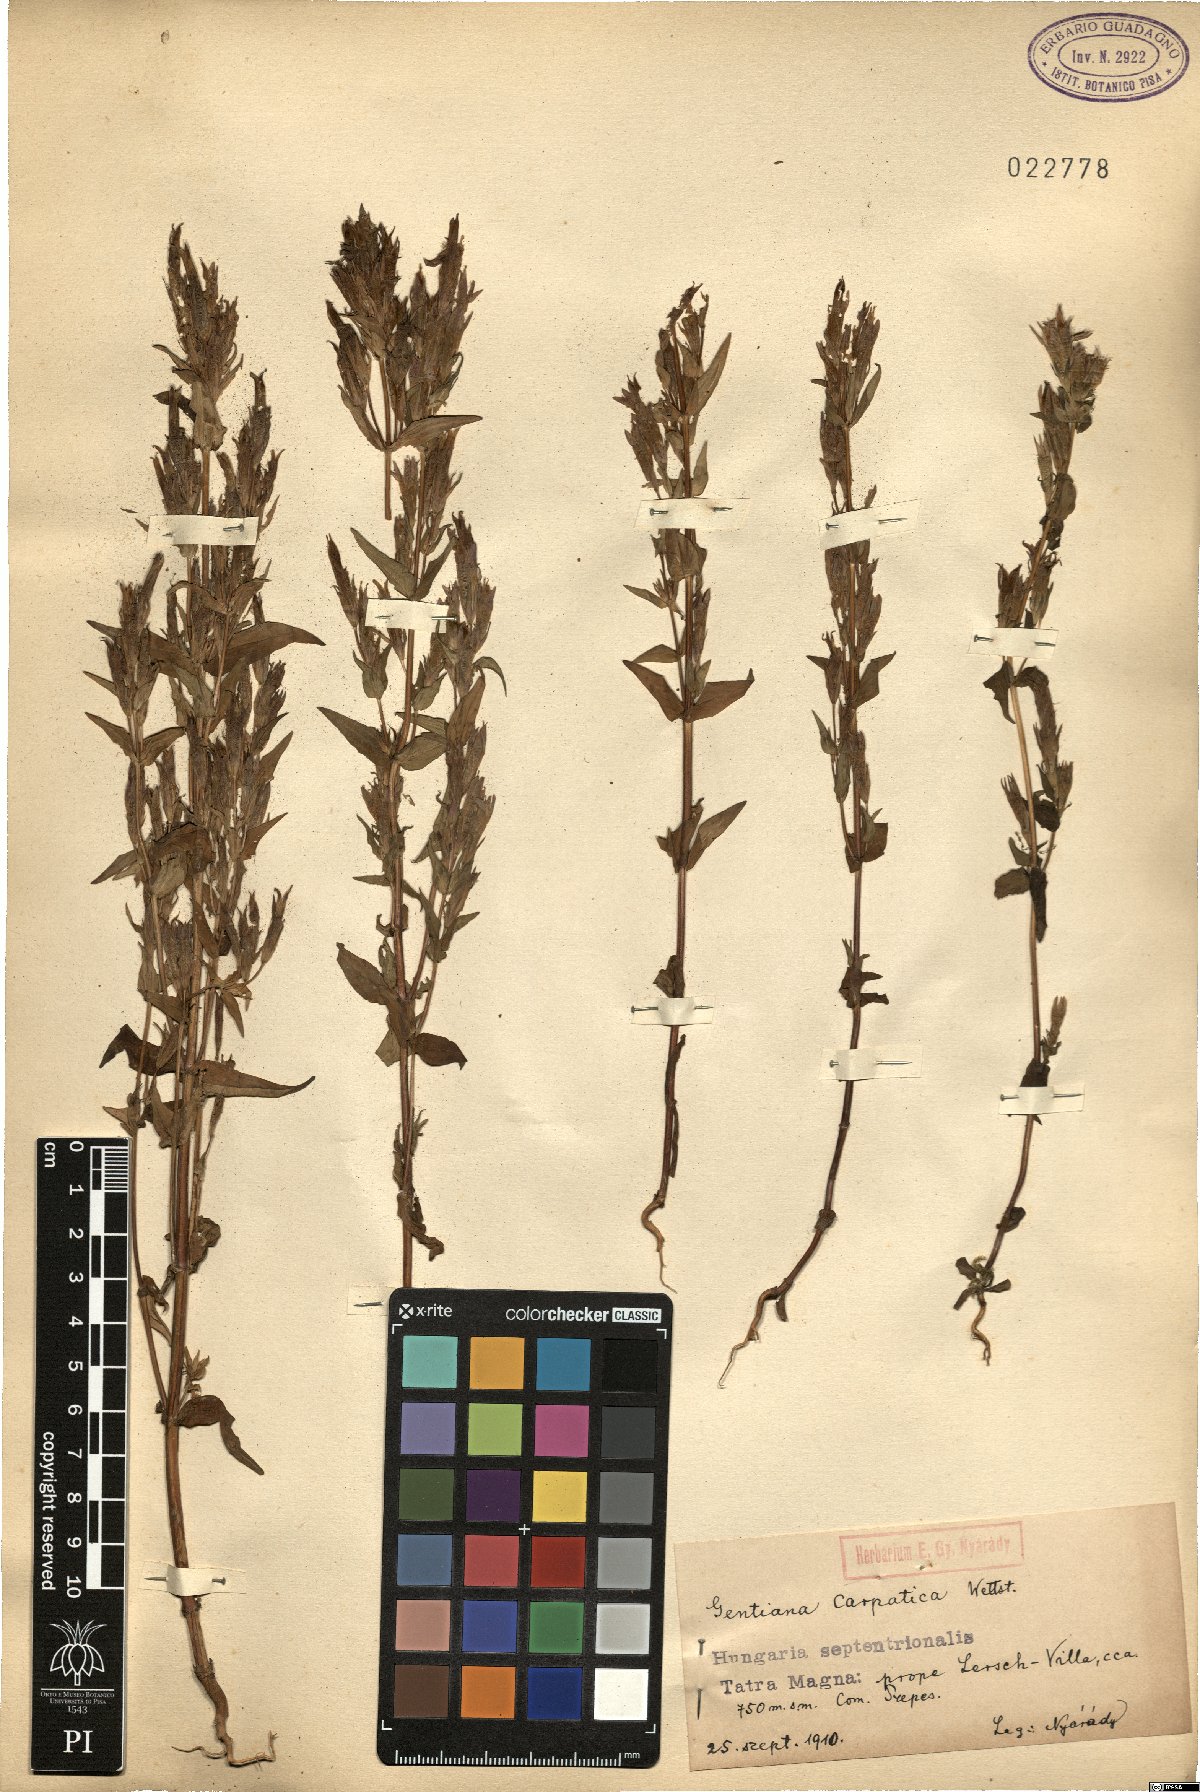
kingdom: Plantae
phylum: Tracheophyta
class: Magnoliopsida
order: Gentianales
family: Gentianaceae
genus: Gentianella
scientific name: Gentianella praecox
